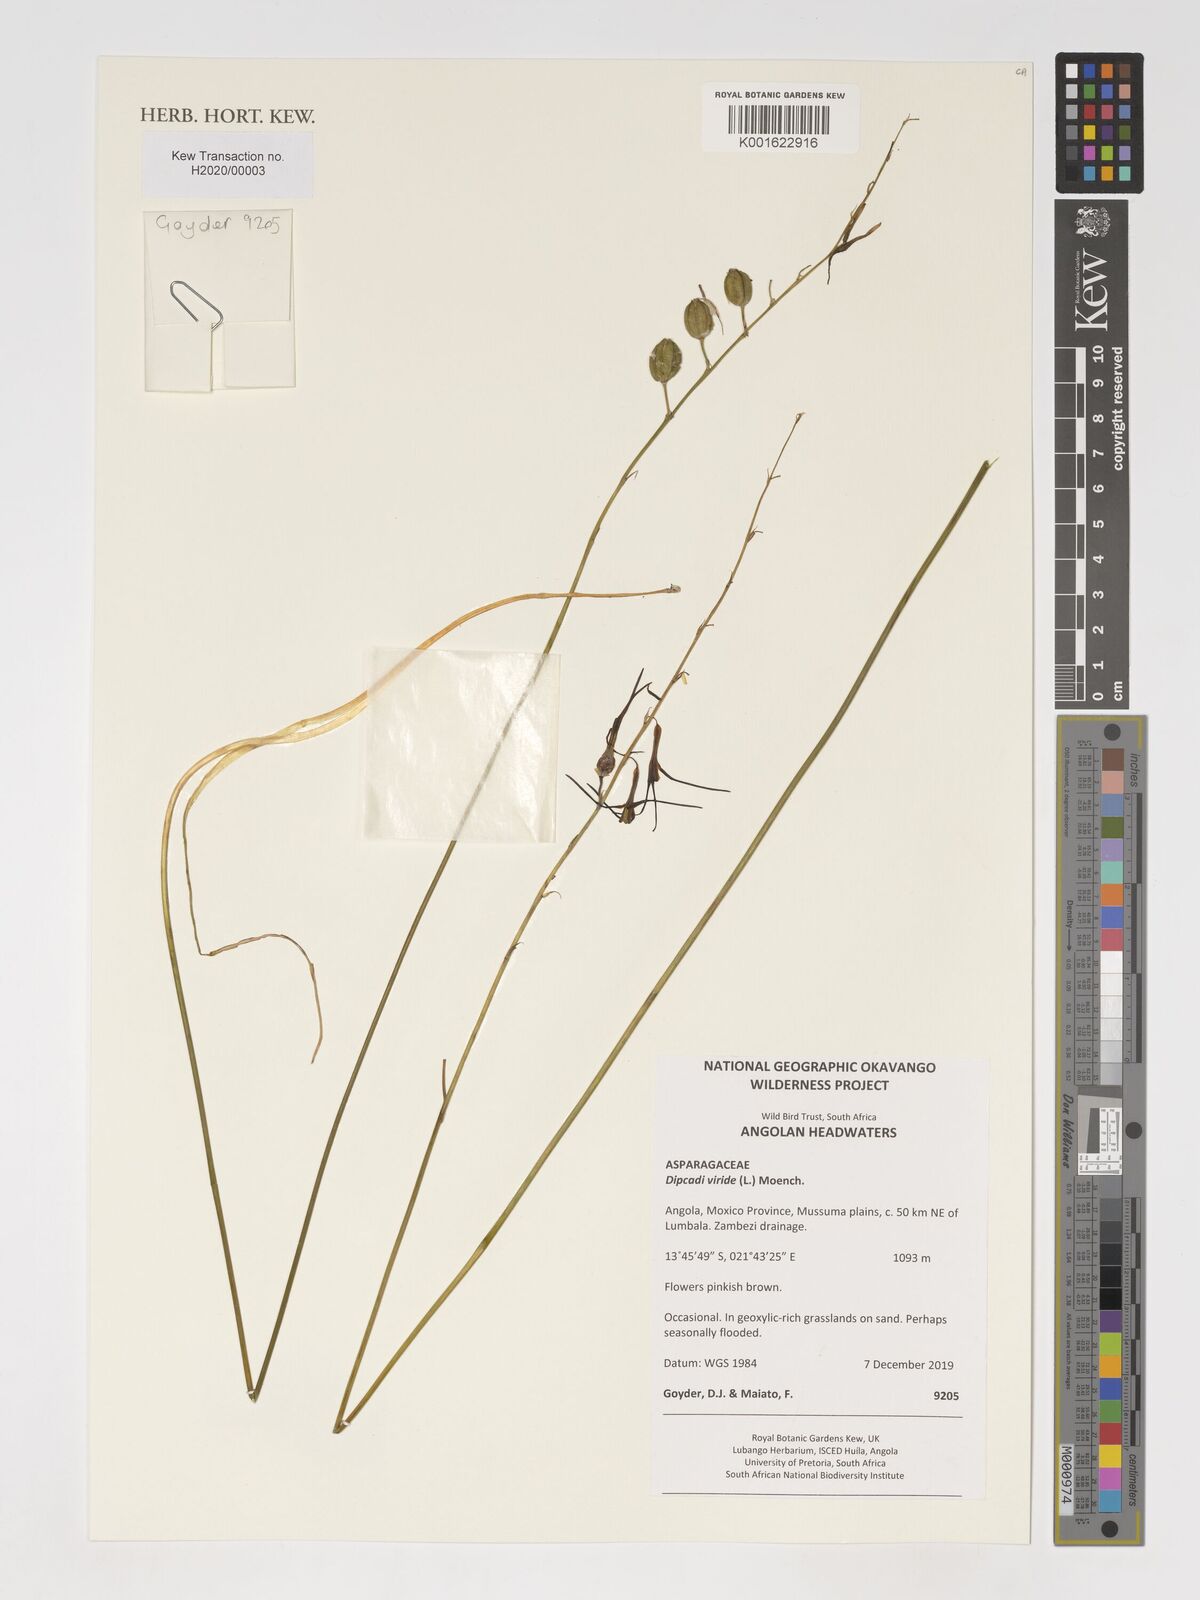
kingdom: Plantae
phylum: Tracheophyta
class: Liliopsida
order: Asparagales
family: Asparagaceae
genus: Dipcadi
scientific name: Dipcadi viride
